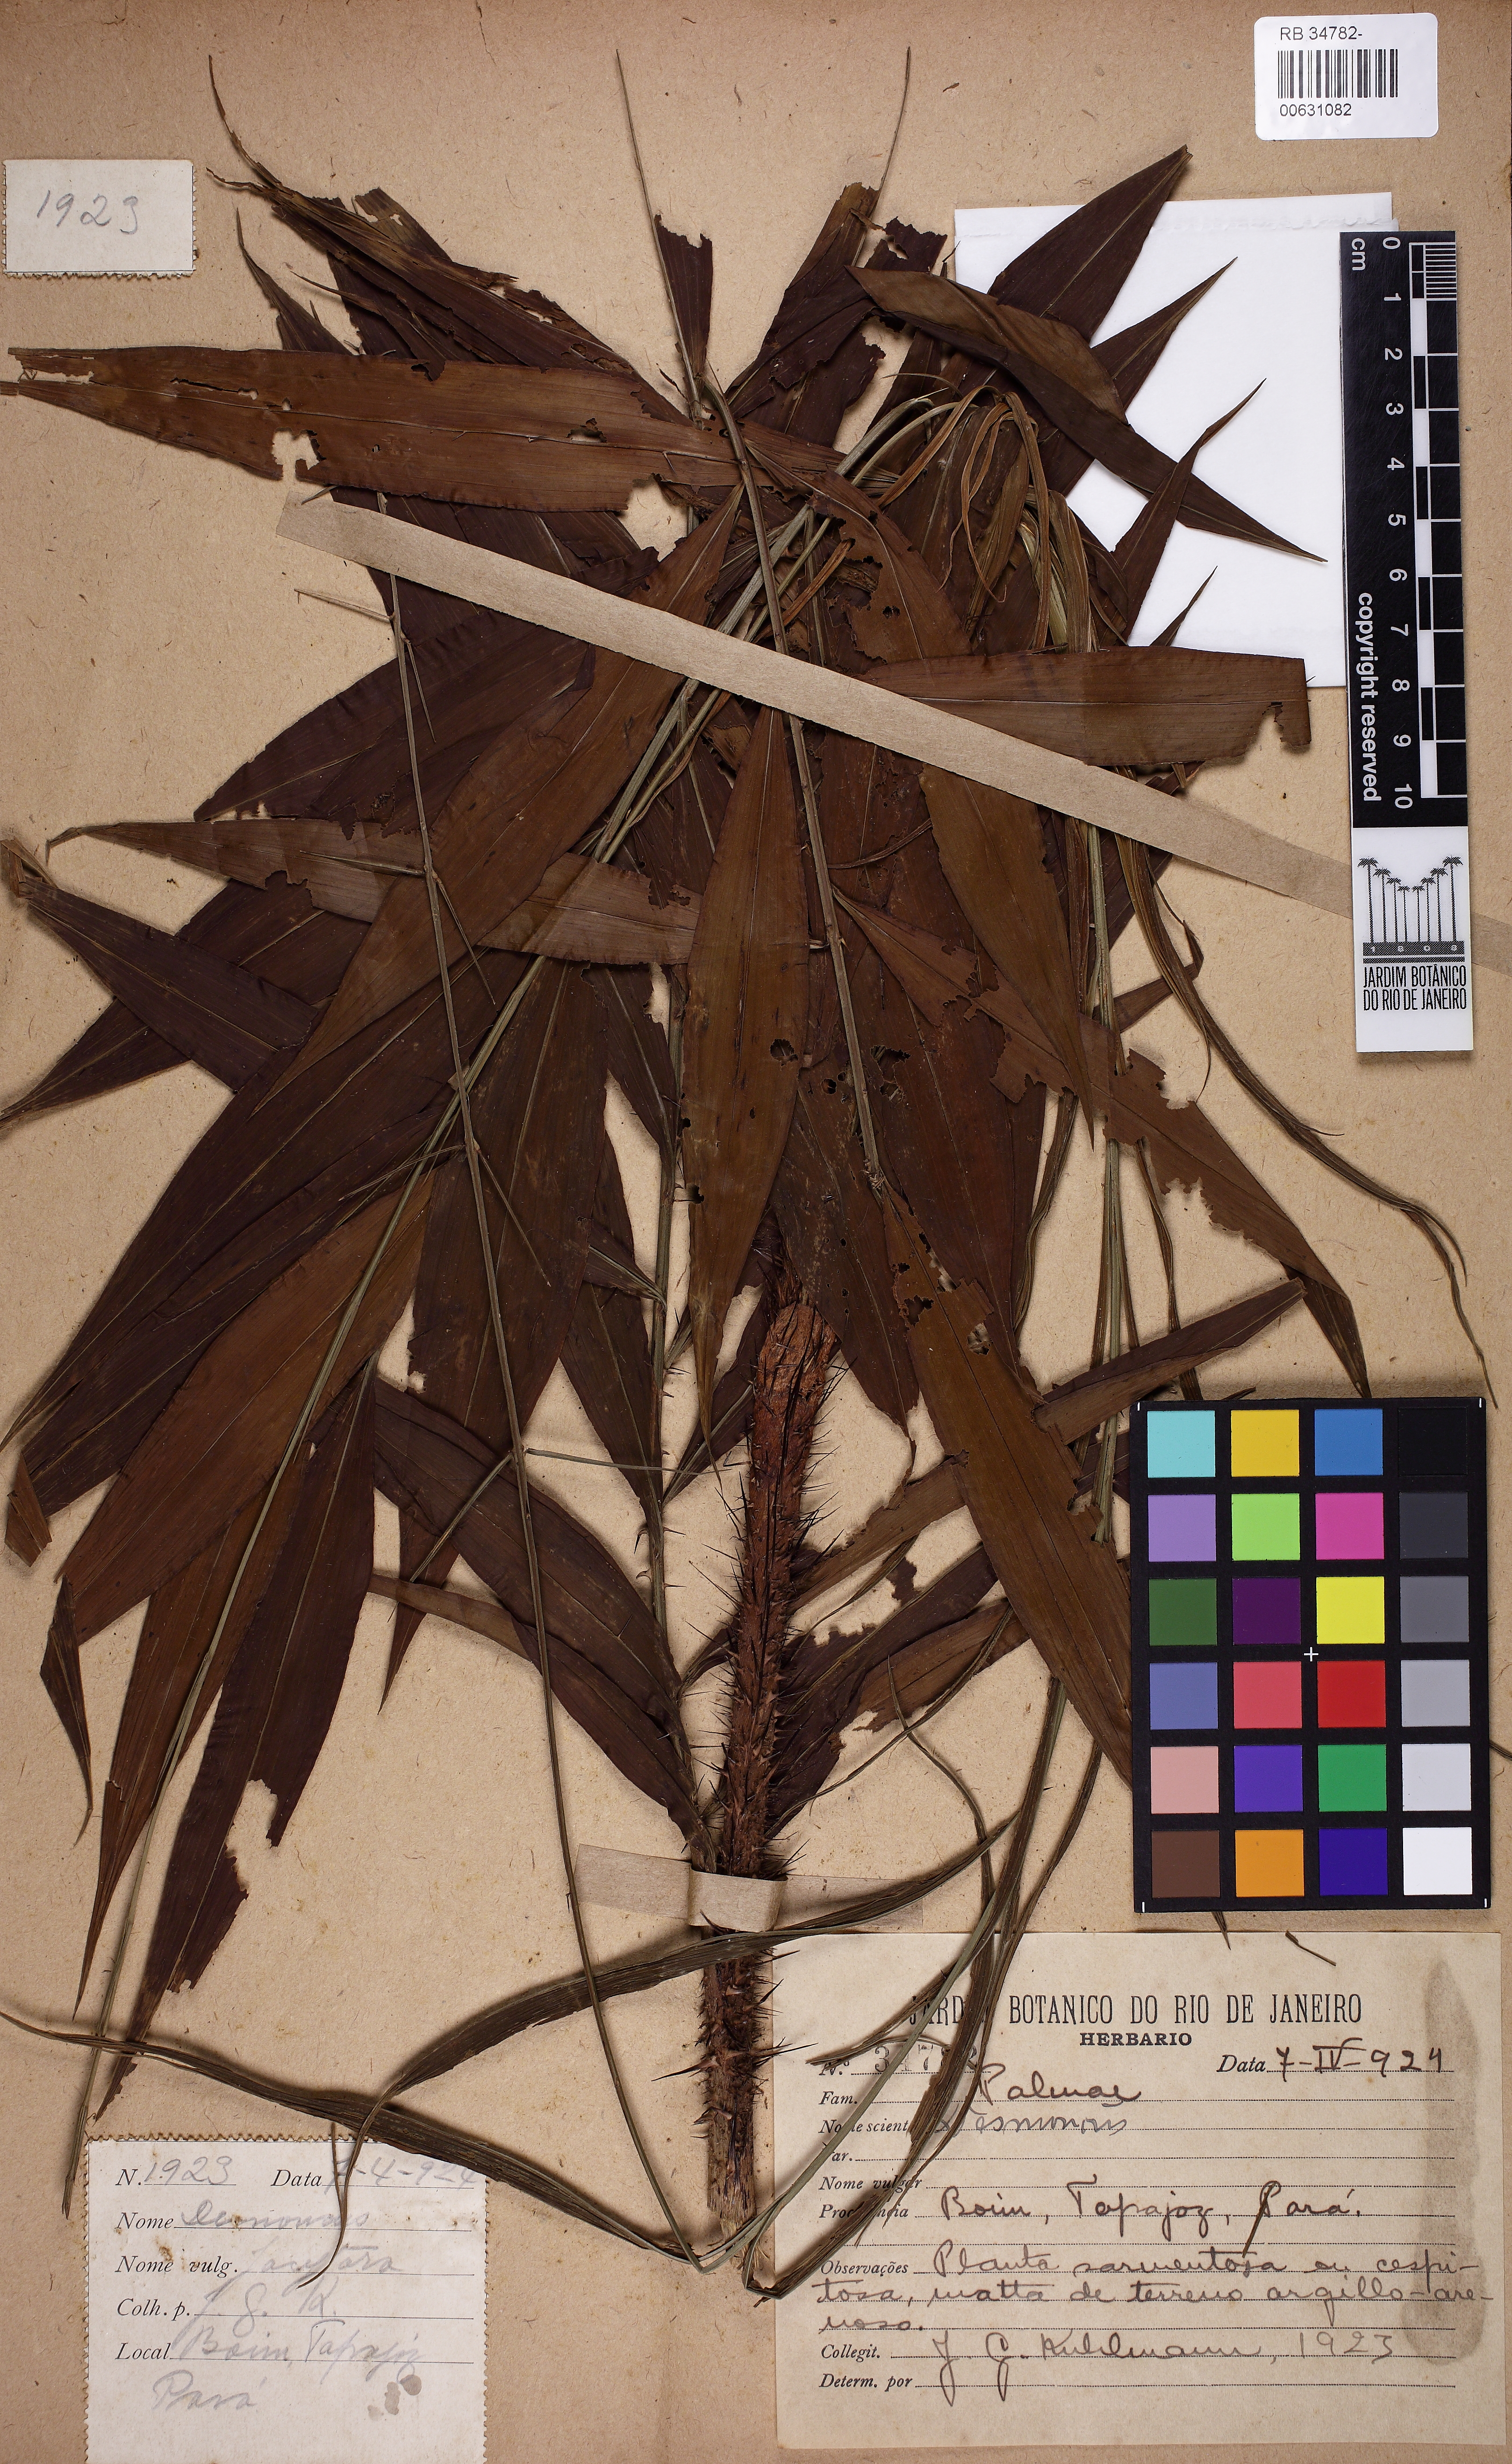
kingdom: Plantae
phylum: Tracheophyta
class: Liliopsida
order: Arecales
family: Arecaceae
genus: Desmoncus
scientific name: Desmoncus
